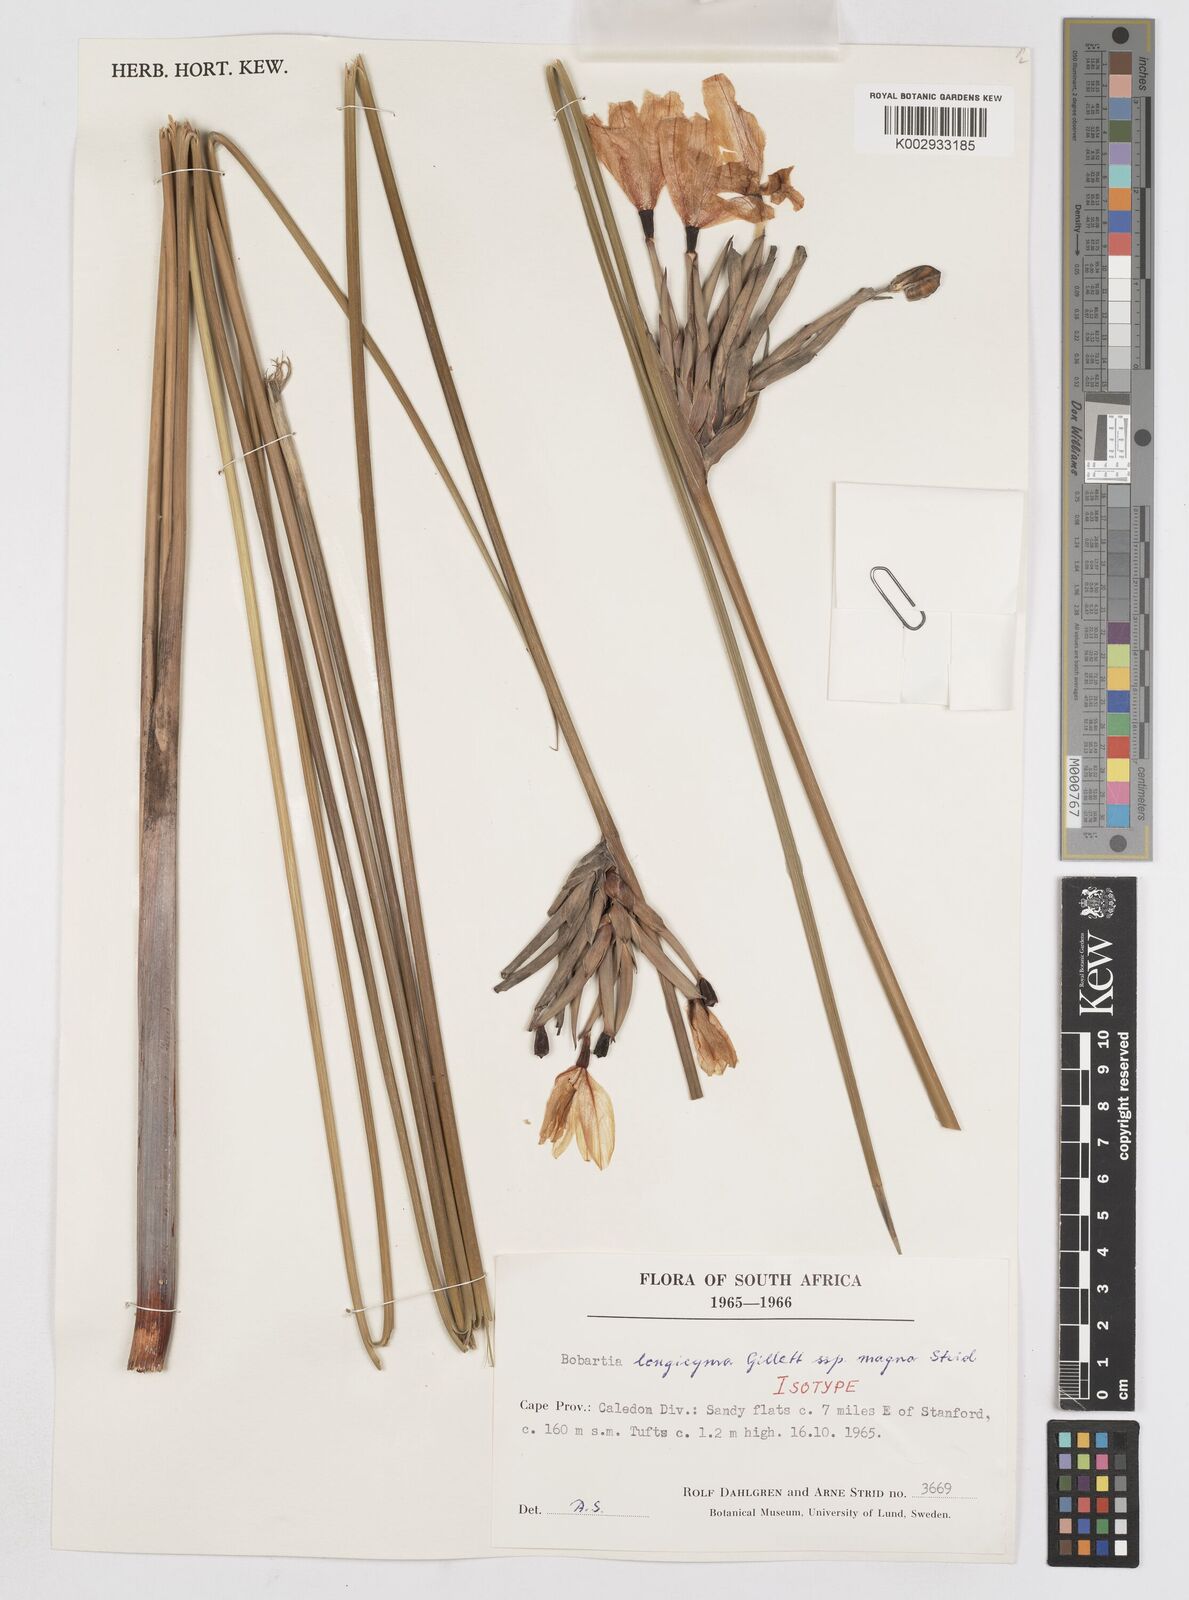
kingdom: Plantae
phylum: Tracheophyta
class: Liliopsida
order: Asparagales
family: Iridaceae
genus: Bobartia
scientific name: Bobartia longicyma
